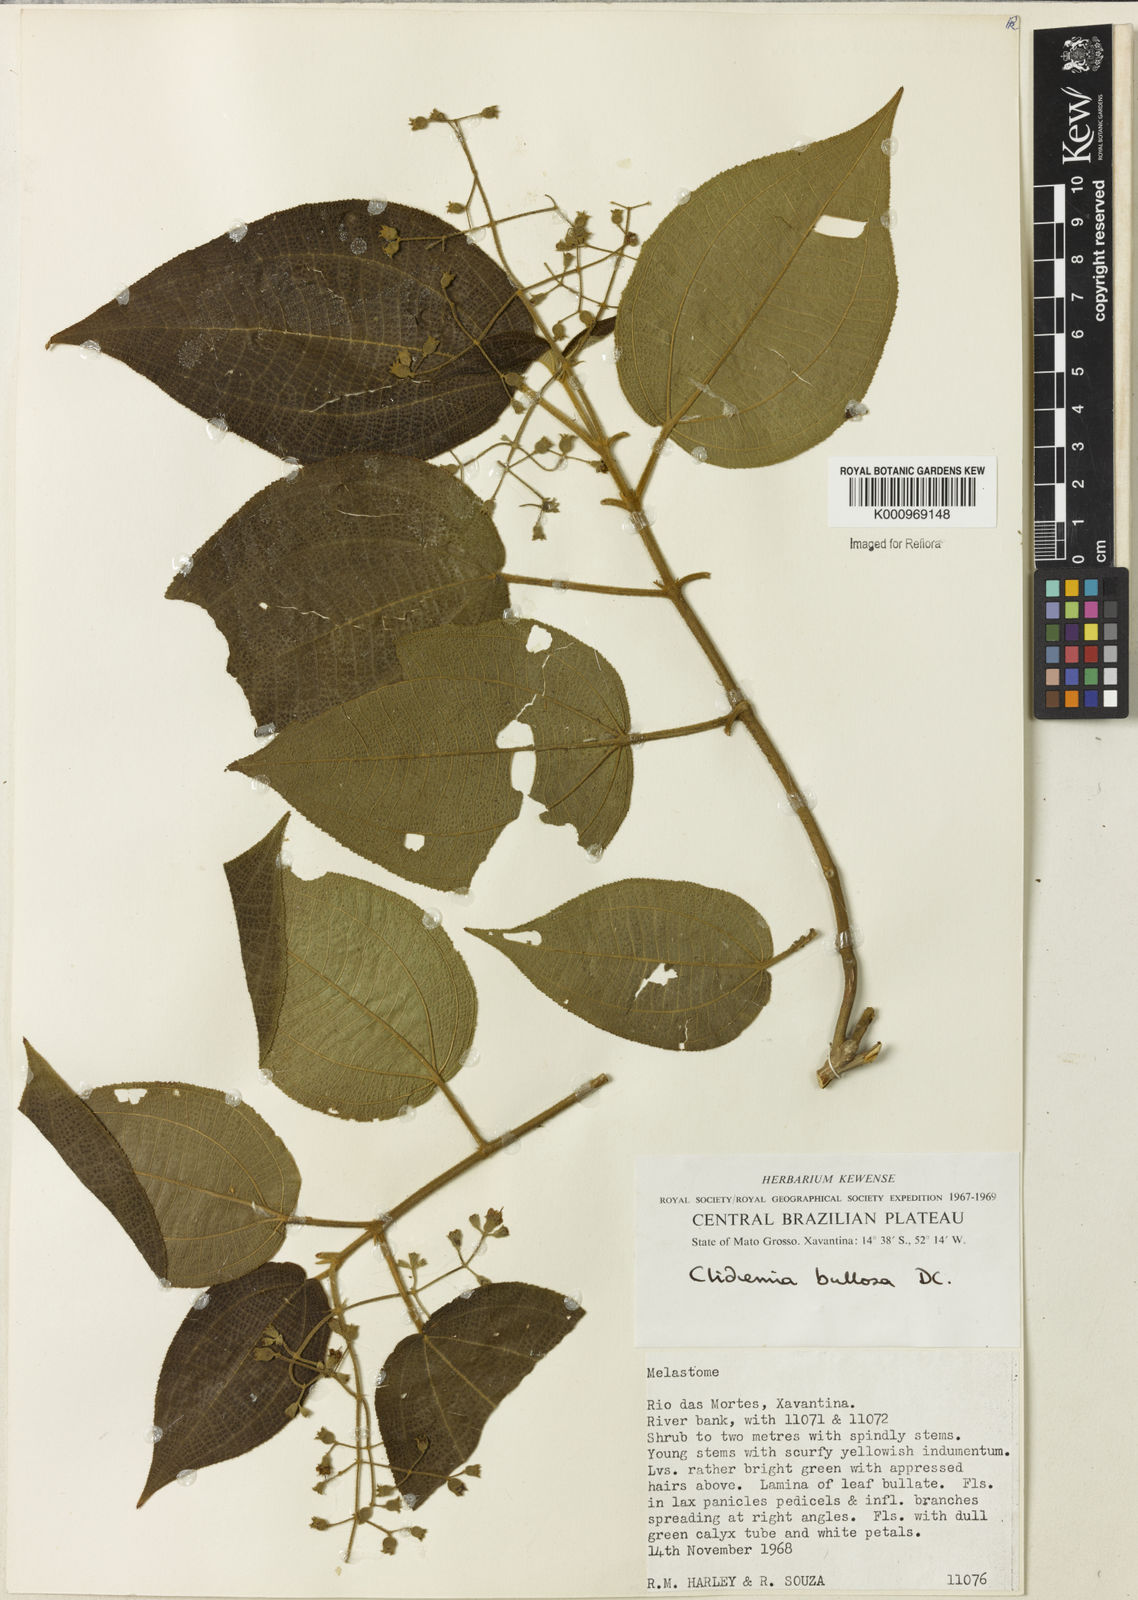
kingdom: Plantae
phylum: Tracheophyta
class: Magnoliopsida
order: Myrtales
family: Melastomataceae
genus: Miconia
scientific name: Miconia biserrata
